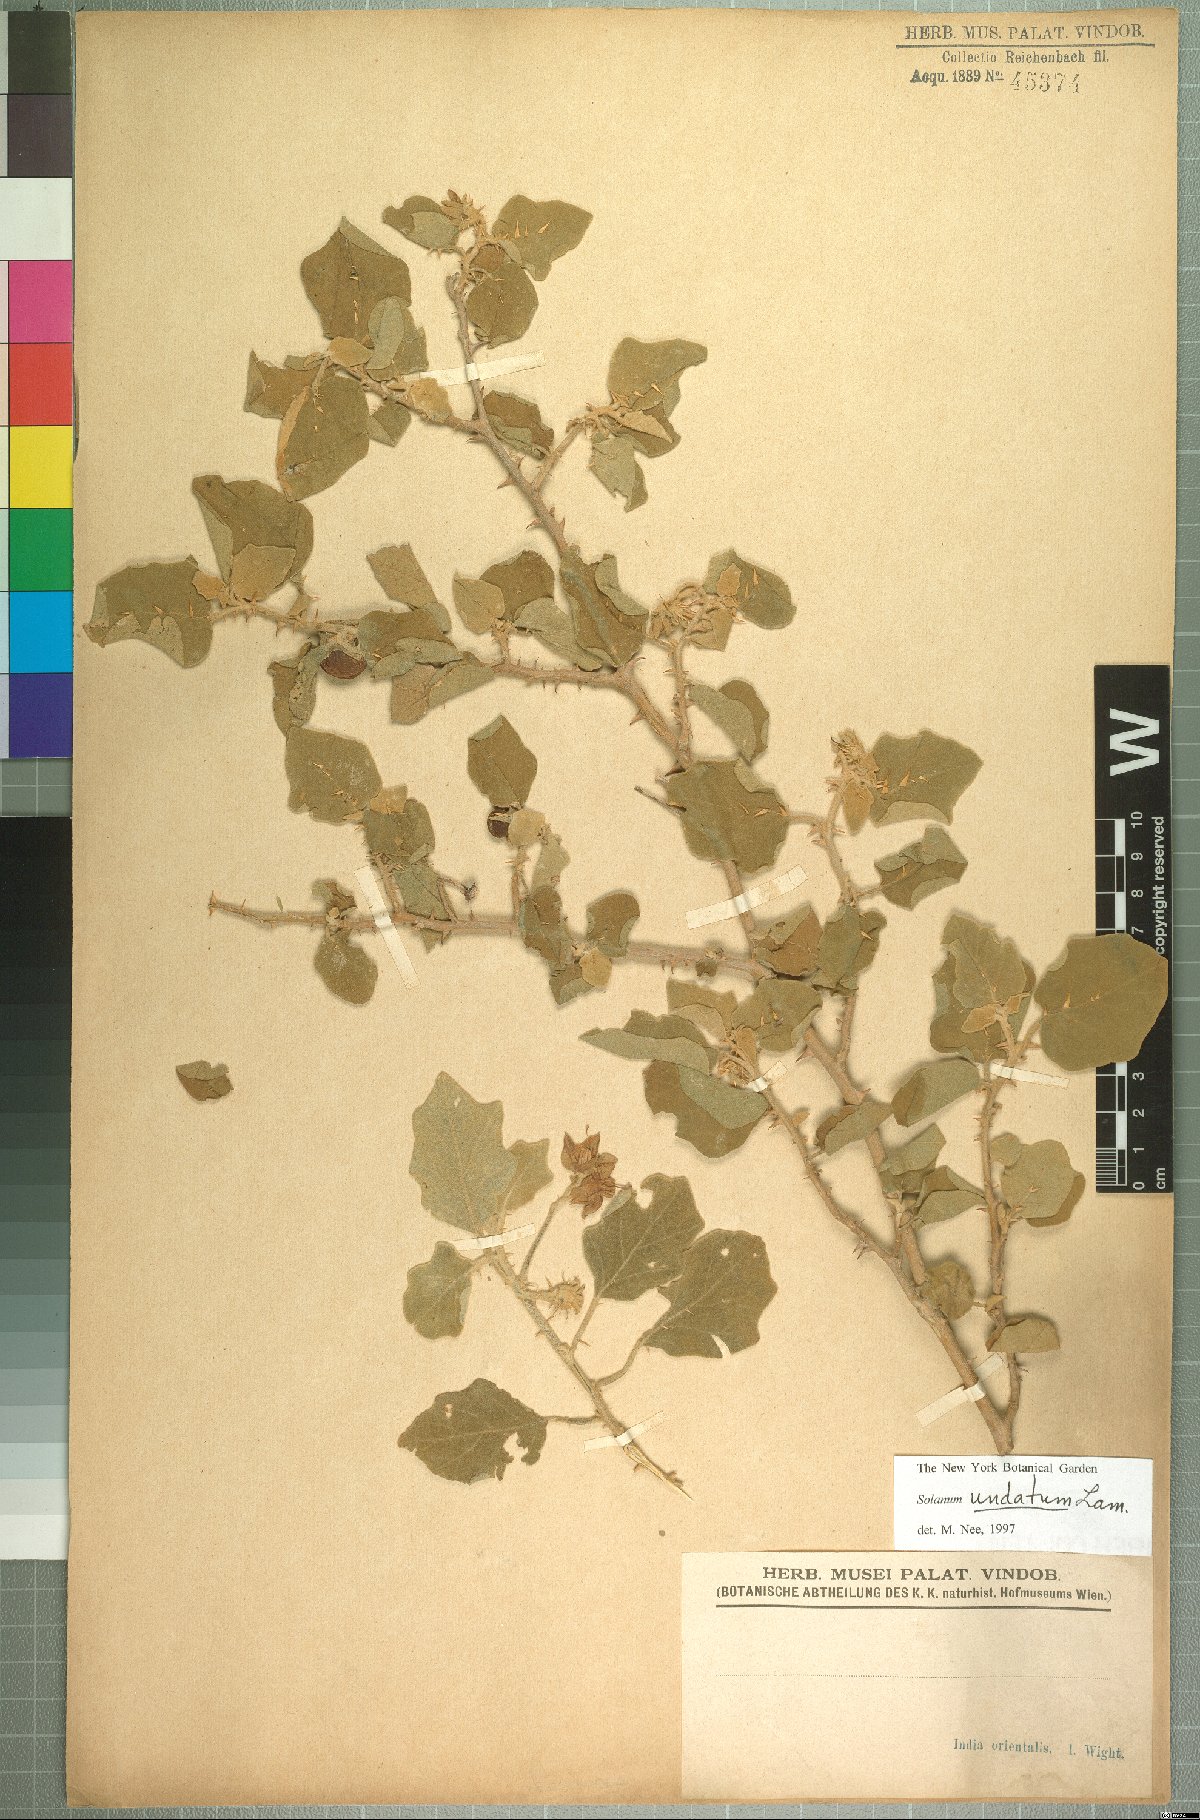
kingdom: Plantae
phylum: Tracheophyta
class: Magnoliopsida
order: Solanales
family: Solanaceae
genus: Solanum
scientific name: Solanum insanum
